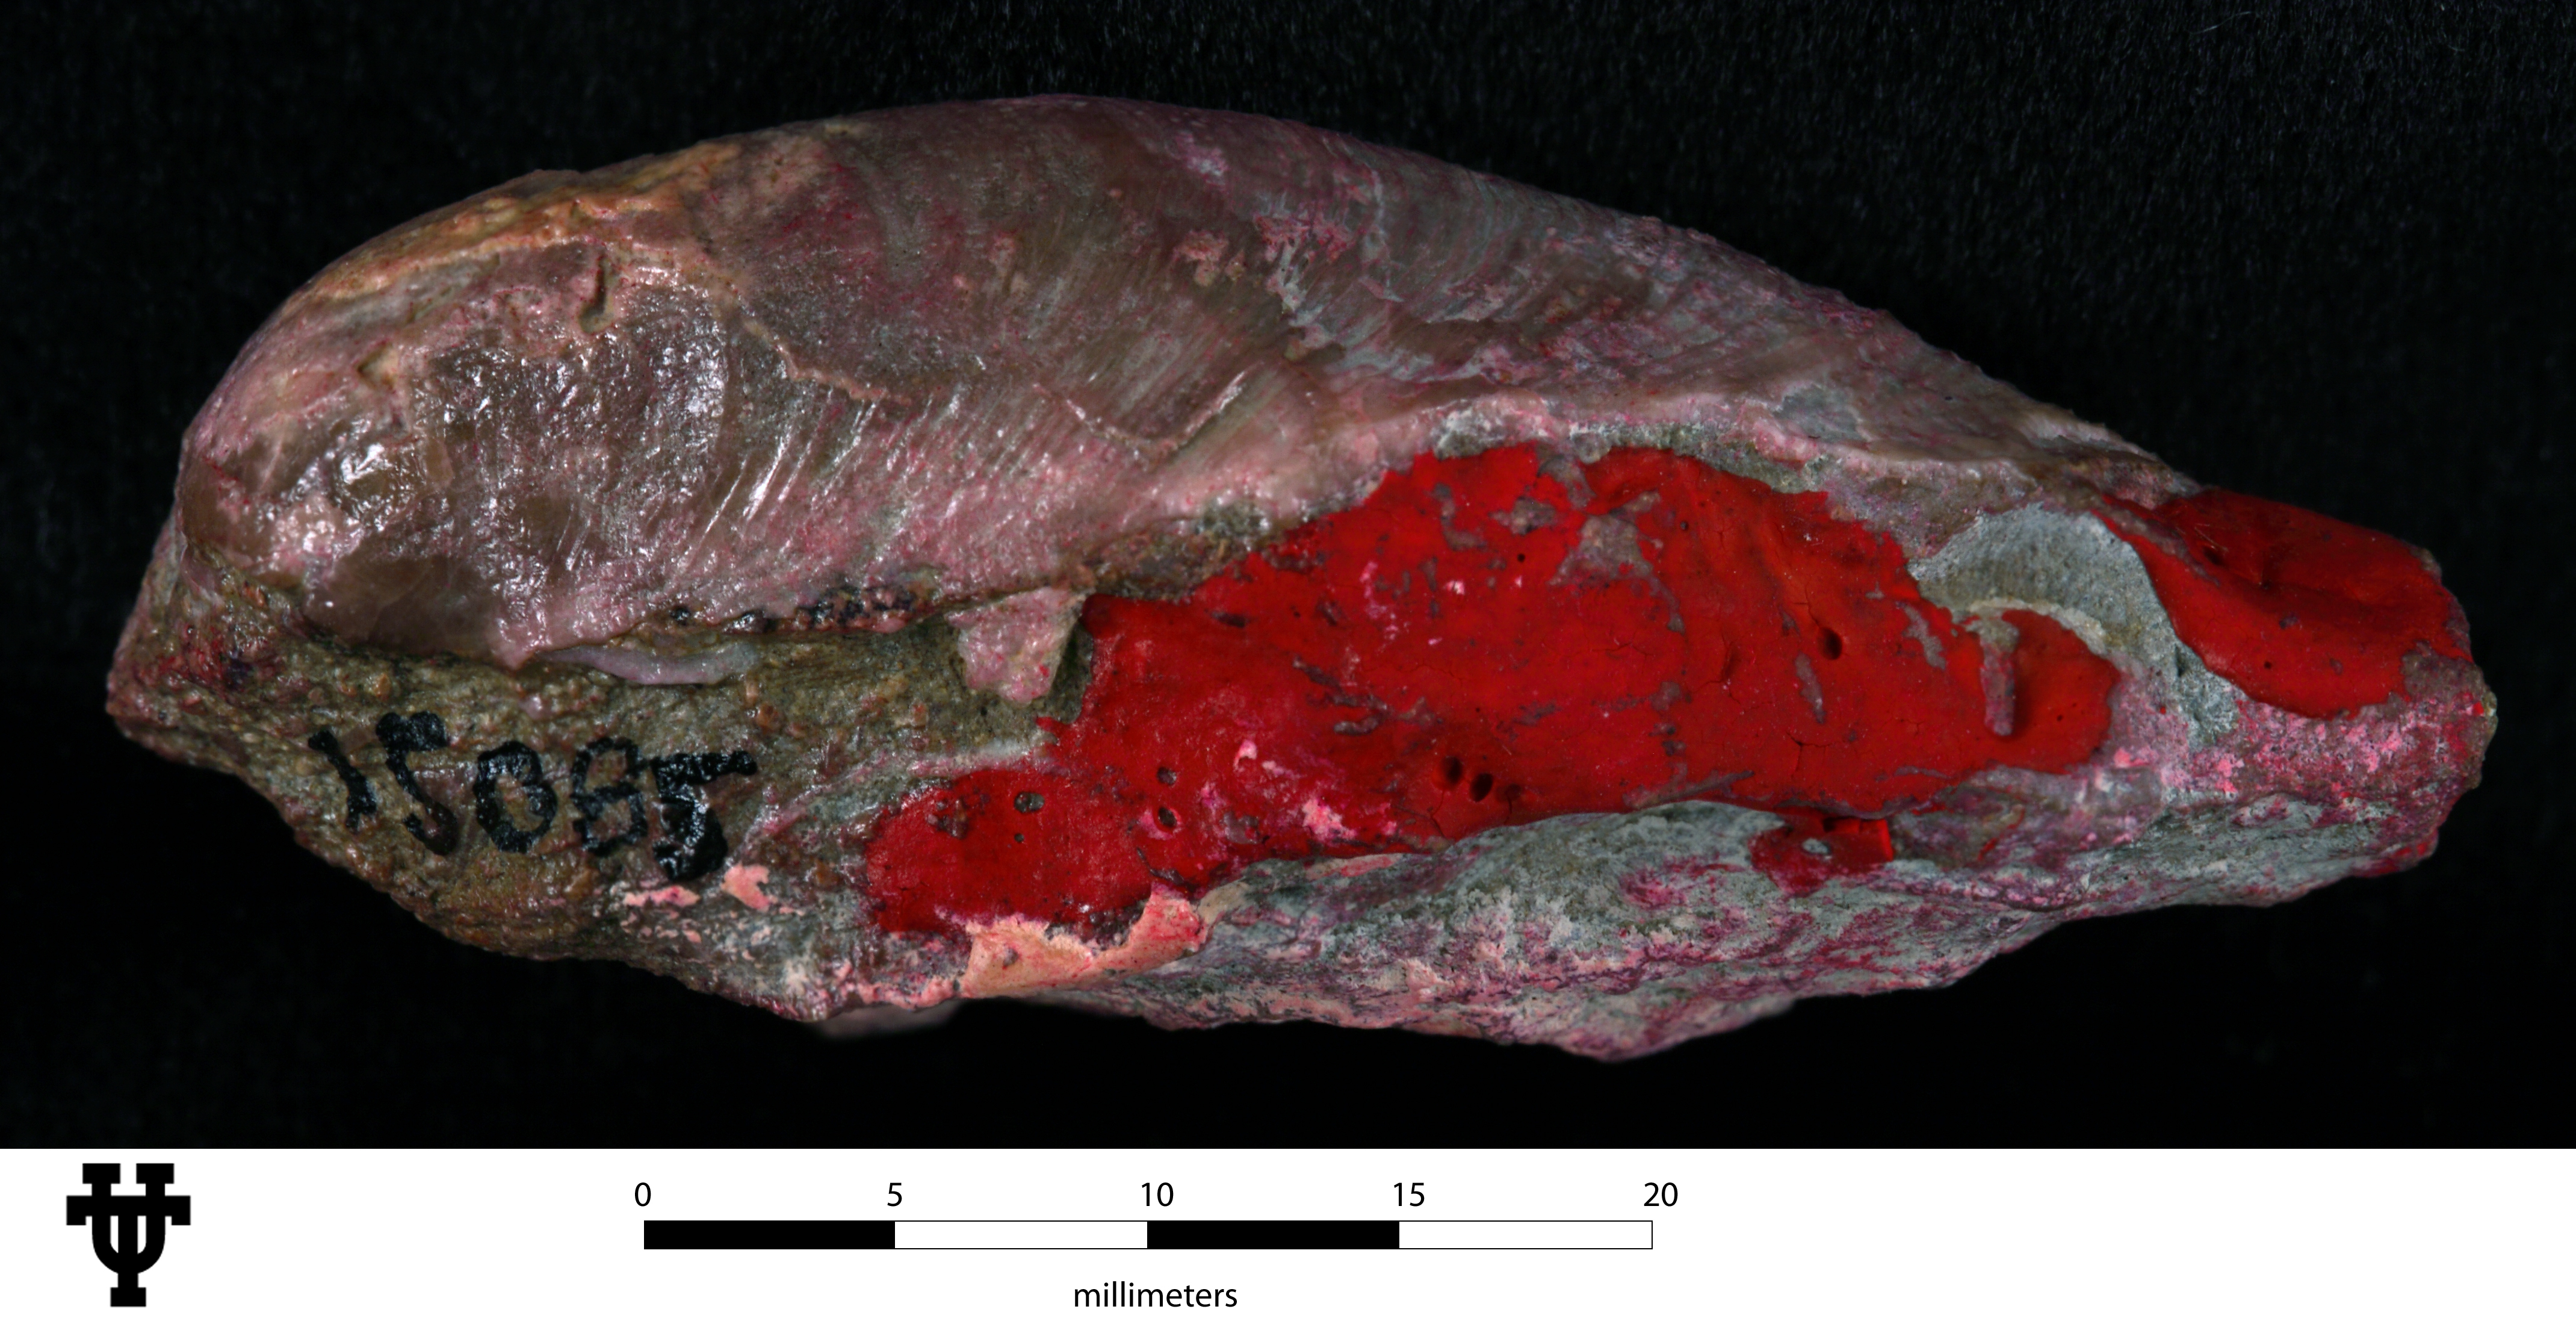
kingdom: Animalia
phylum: Mollusca
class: Cephalopoda
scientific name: Cephalopoda
